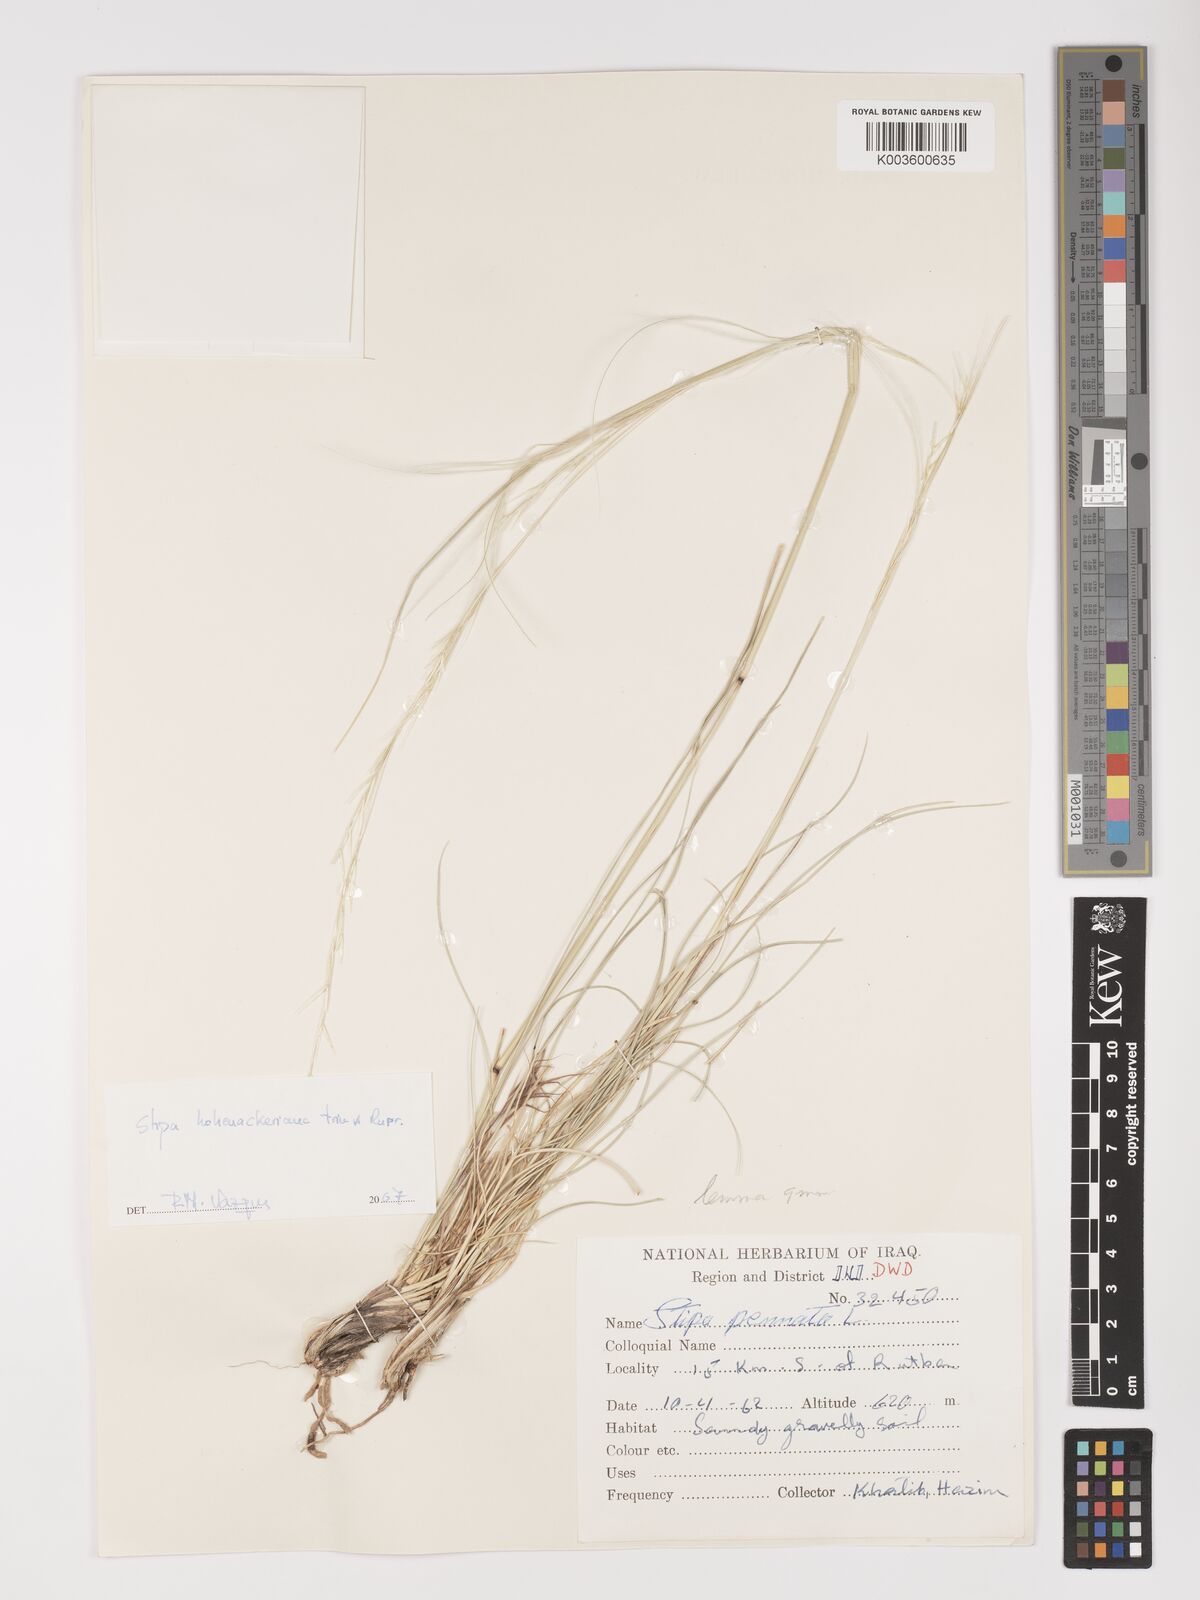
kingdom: Plantae
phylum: Tracheophyta
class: Liliopsida
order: Poales
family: Poaceae
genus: Stipa
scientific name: Stipa hohenackeriana
